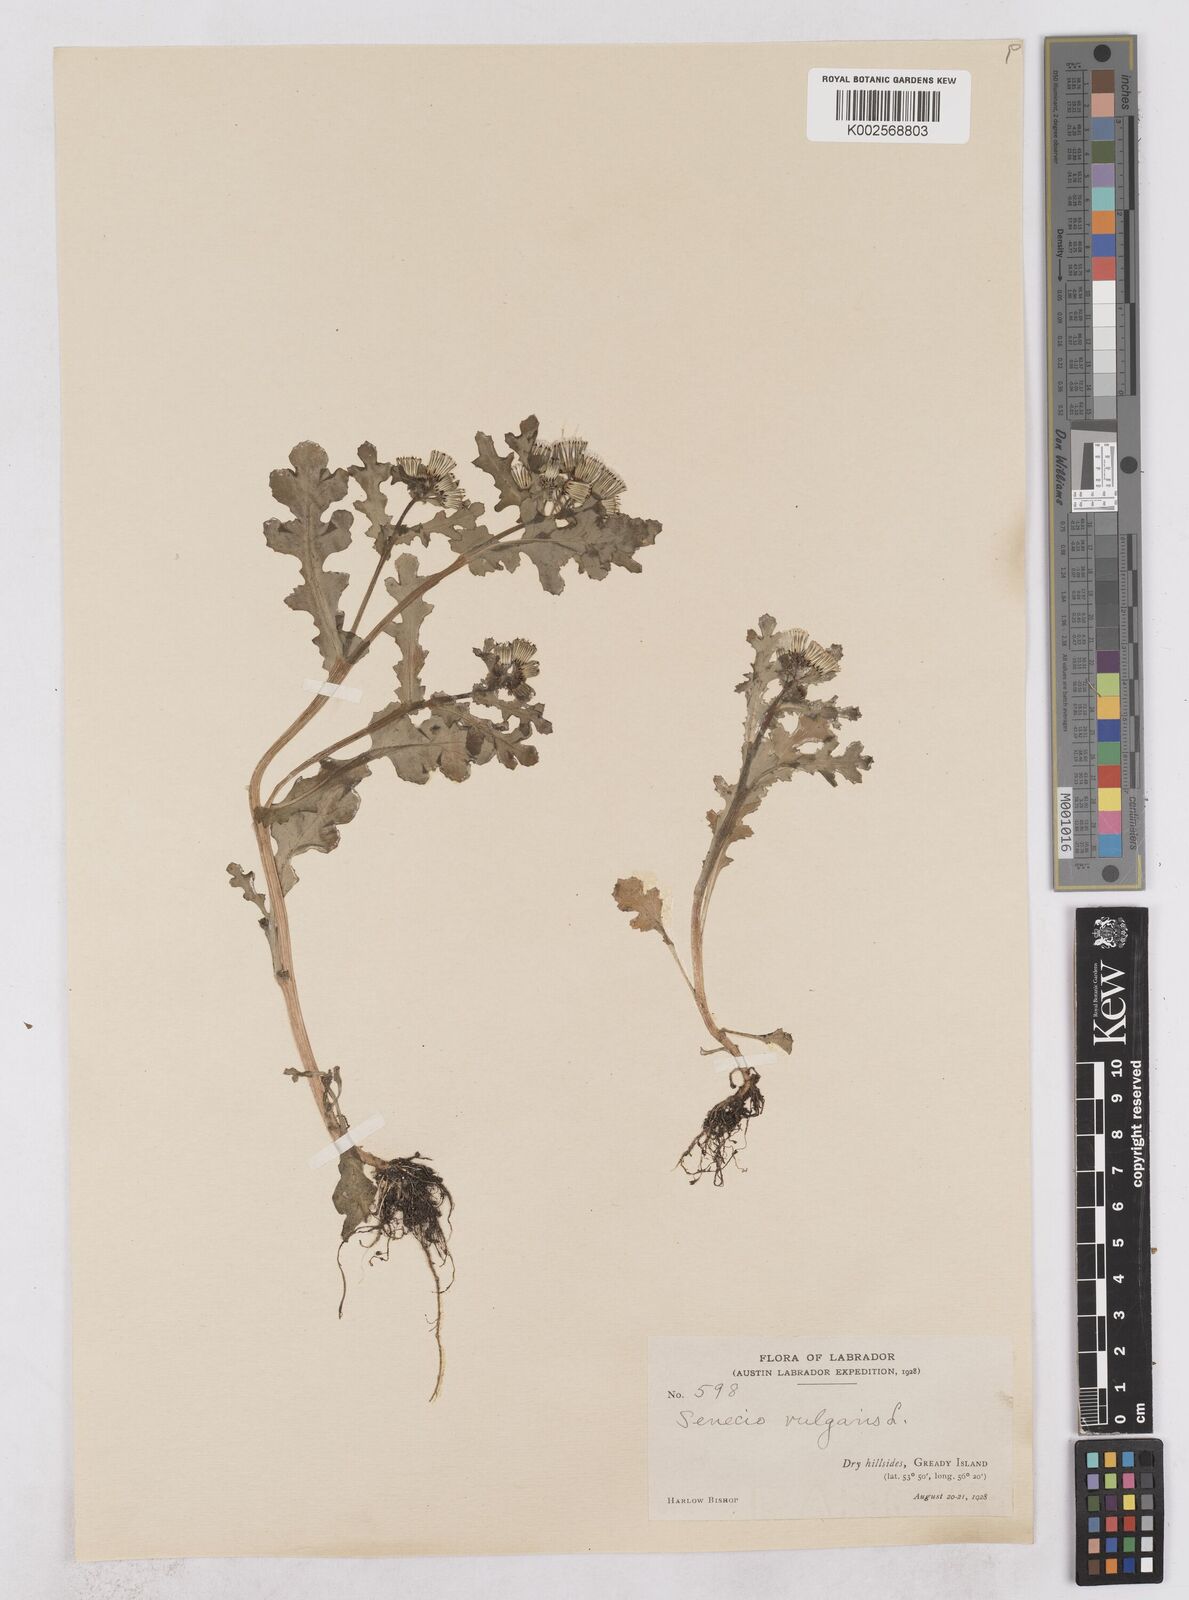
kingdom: Plantae
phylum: Tracheophyta
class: Magnoliopsida
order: Asterales
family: Asteraceae
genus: Senecio
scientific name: Senecio vulgaris
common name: Old-man-in-the-spring
